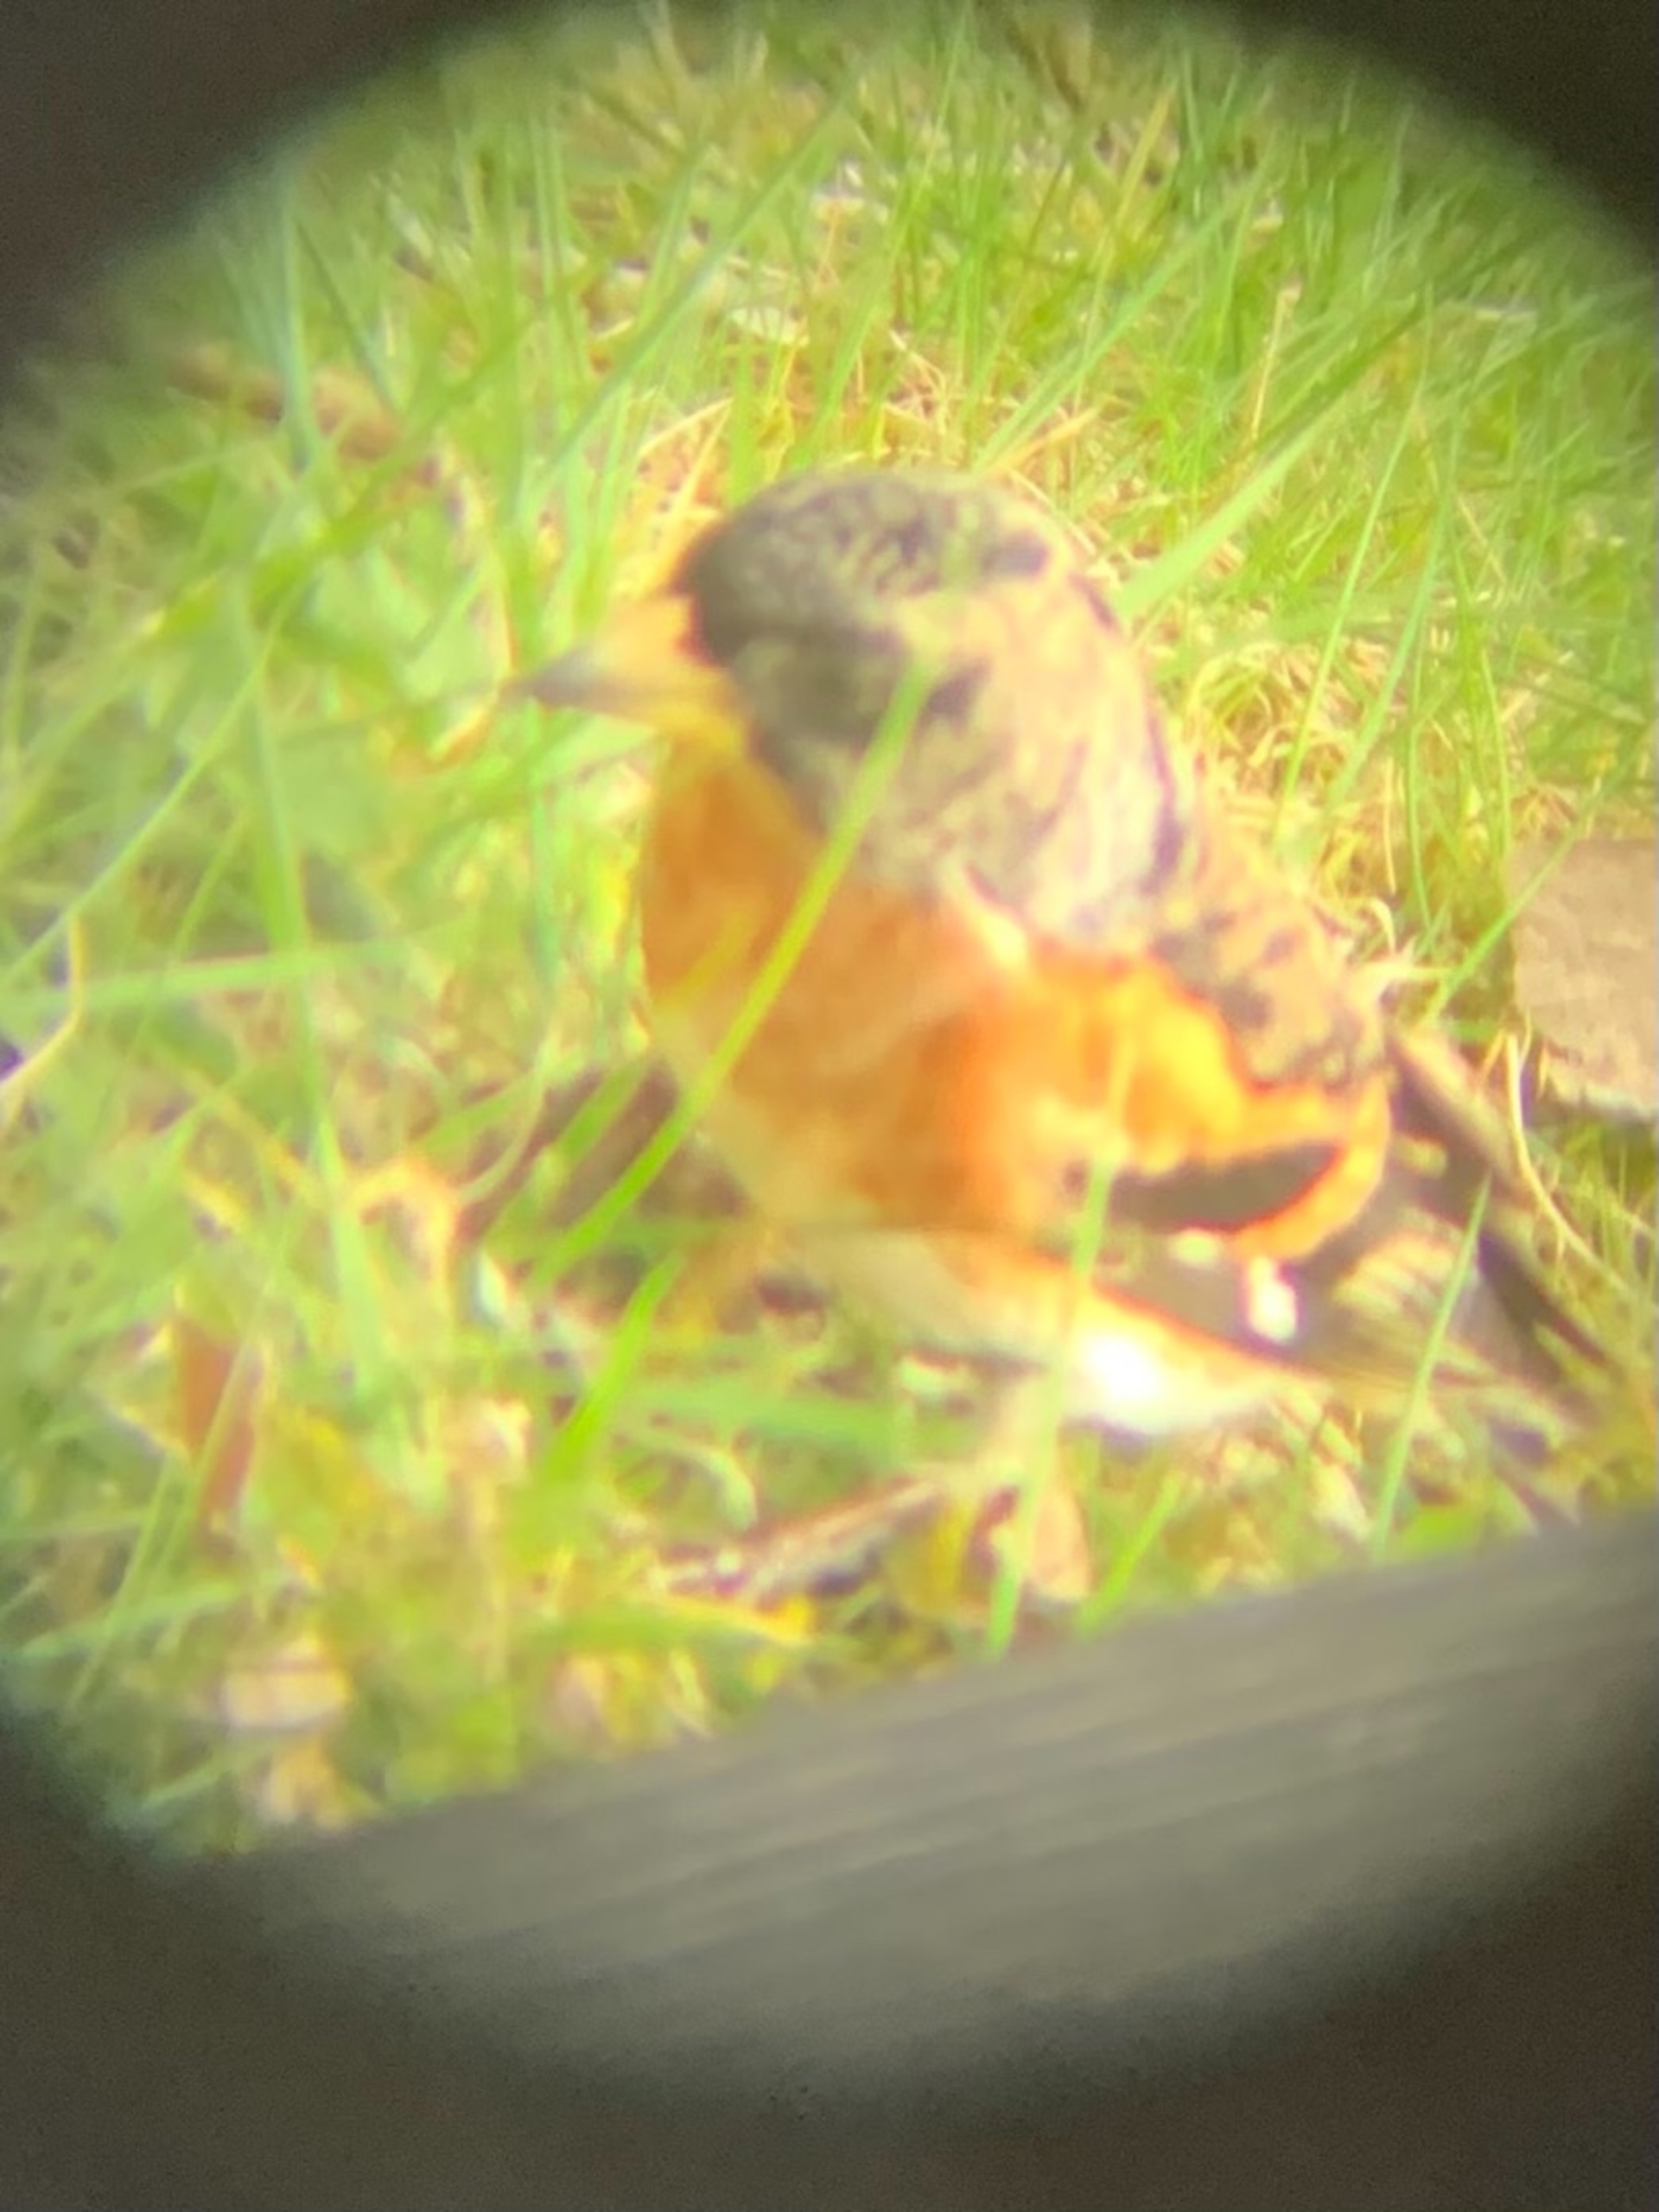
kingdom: Animalia
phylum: Chordata
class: Aves
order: Passeriformes
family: Fringillidae
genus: Fringilla
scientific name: Fringilla montifringilla
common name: Kvækerfinke
